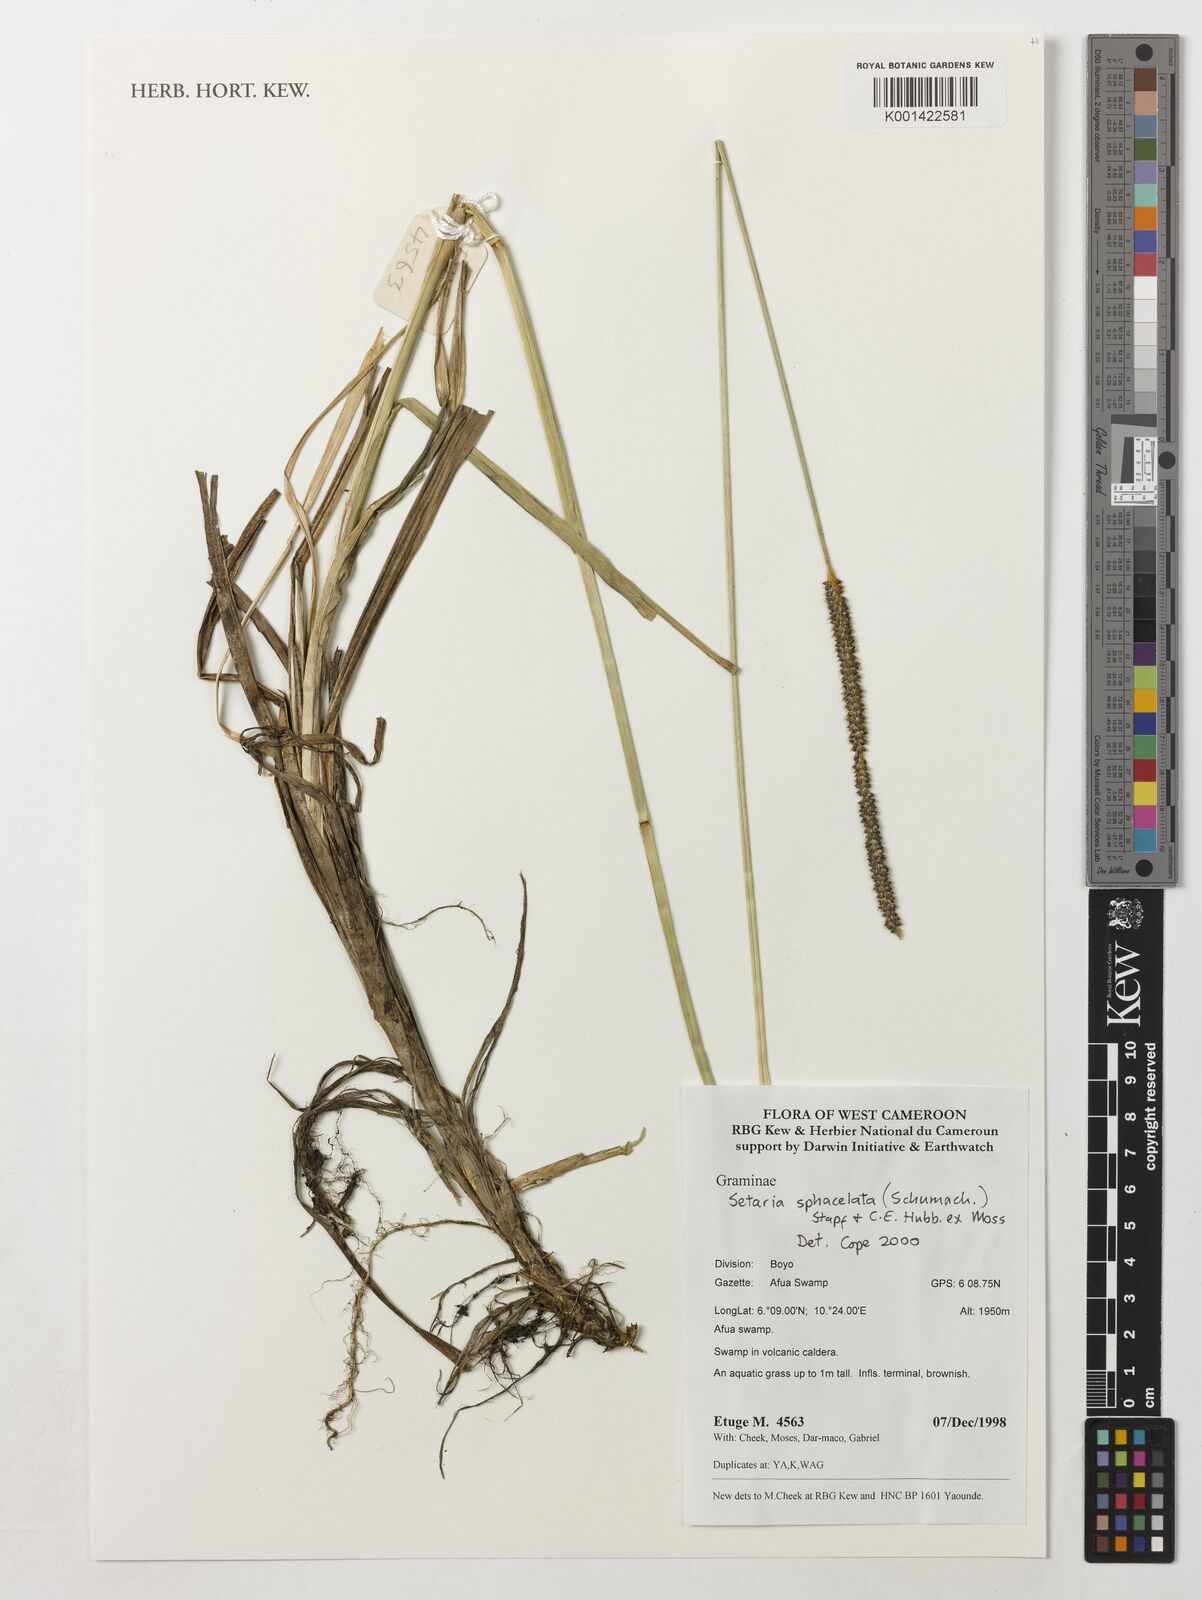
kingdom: Plantae
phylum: Tracheophyta
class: Liliopsida
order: Poales
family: Poaceae
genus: Setaria
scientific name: Setaria sphacelata
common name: African bristlegrass
